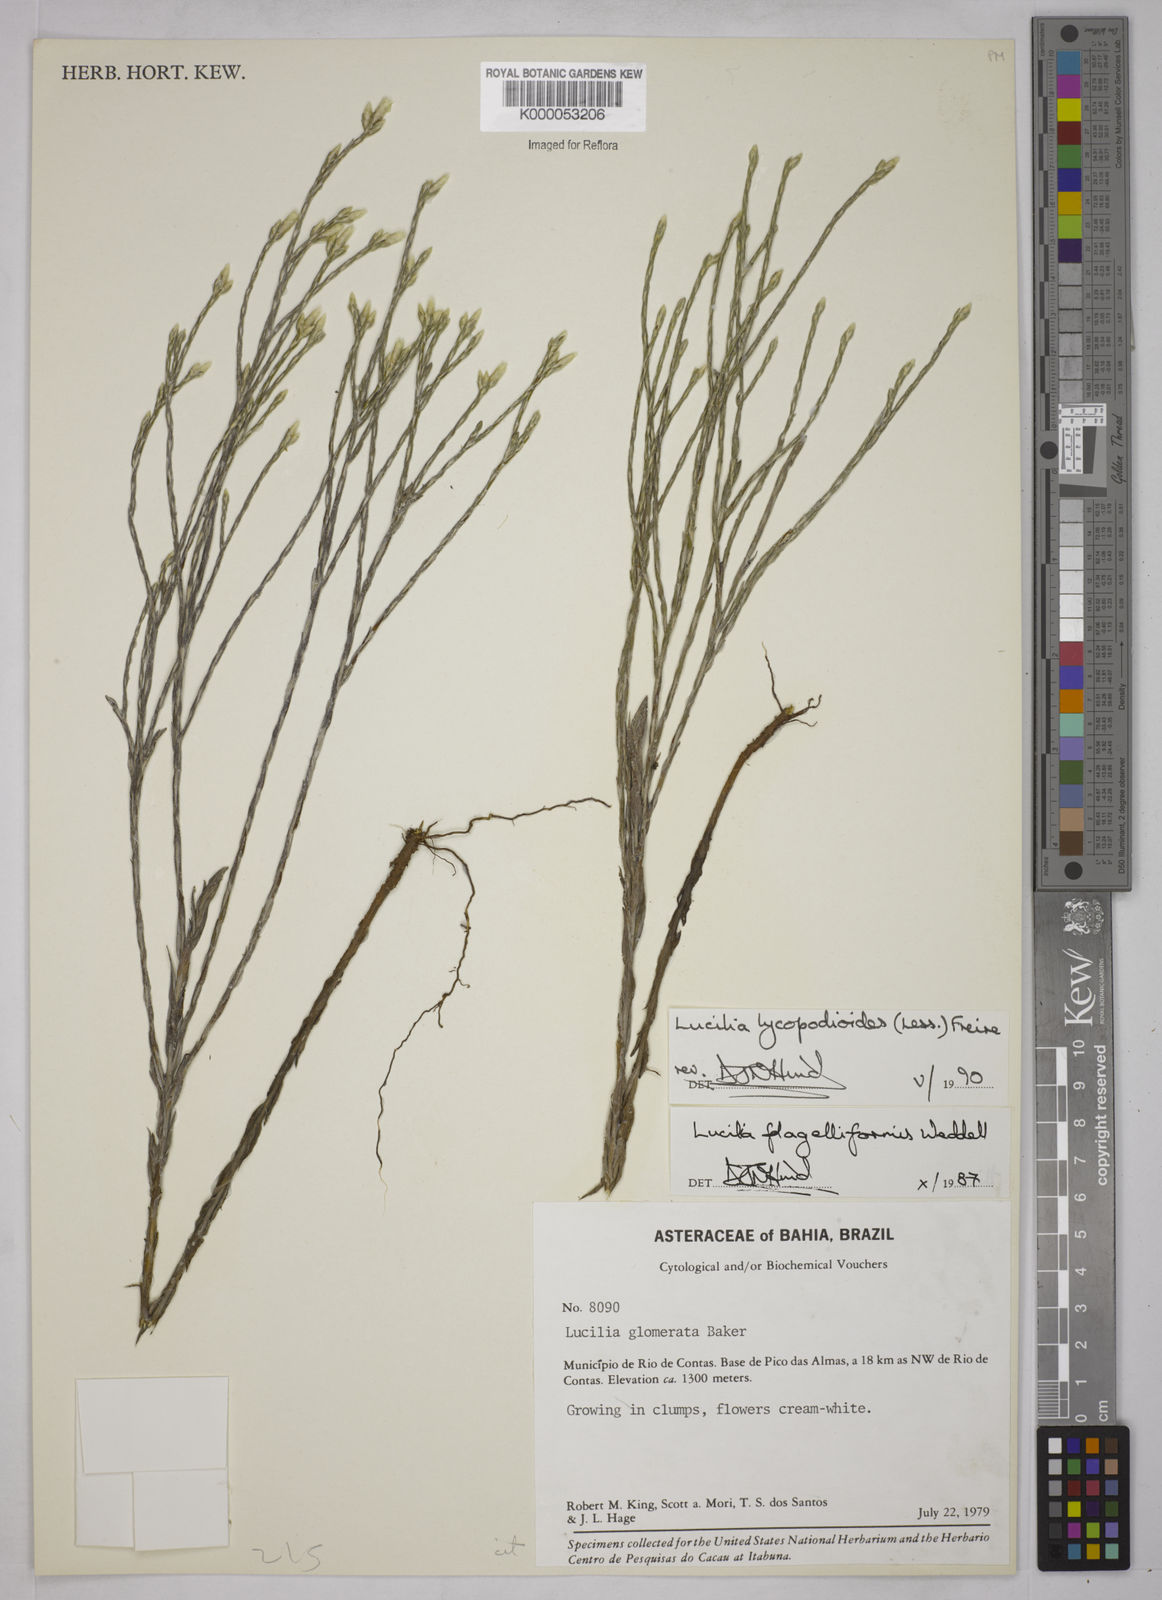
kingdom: Plantae
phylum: Tracheophyta
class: Magnoliopsida
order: Asterales
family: Asteraceae
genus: Lucilia
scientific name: Lucilia lycopodioides
